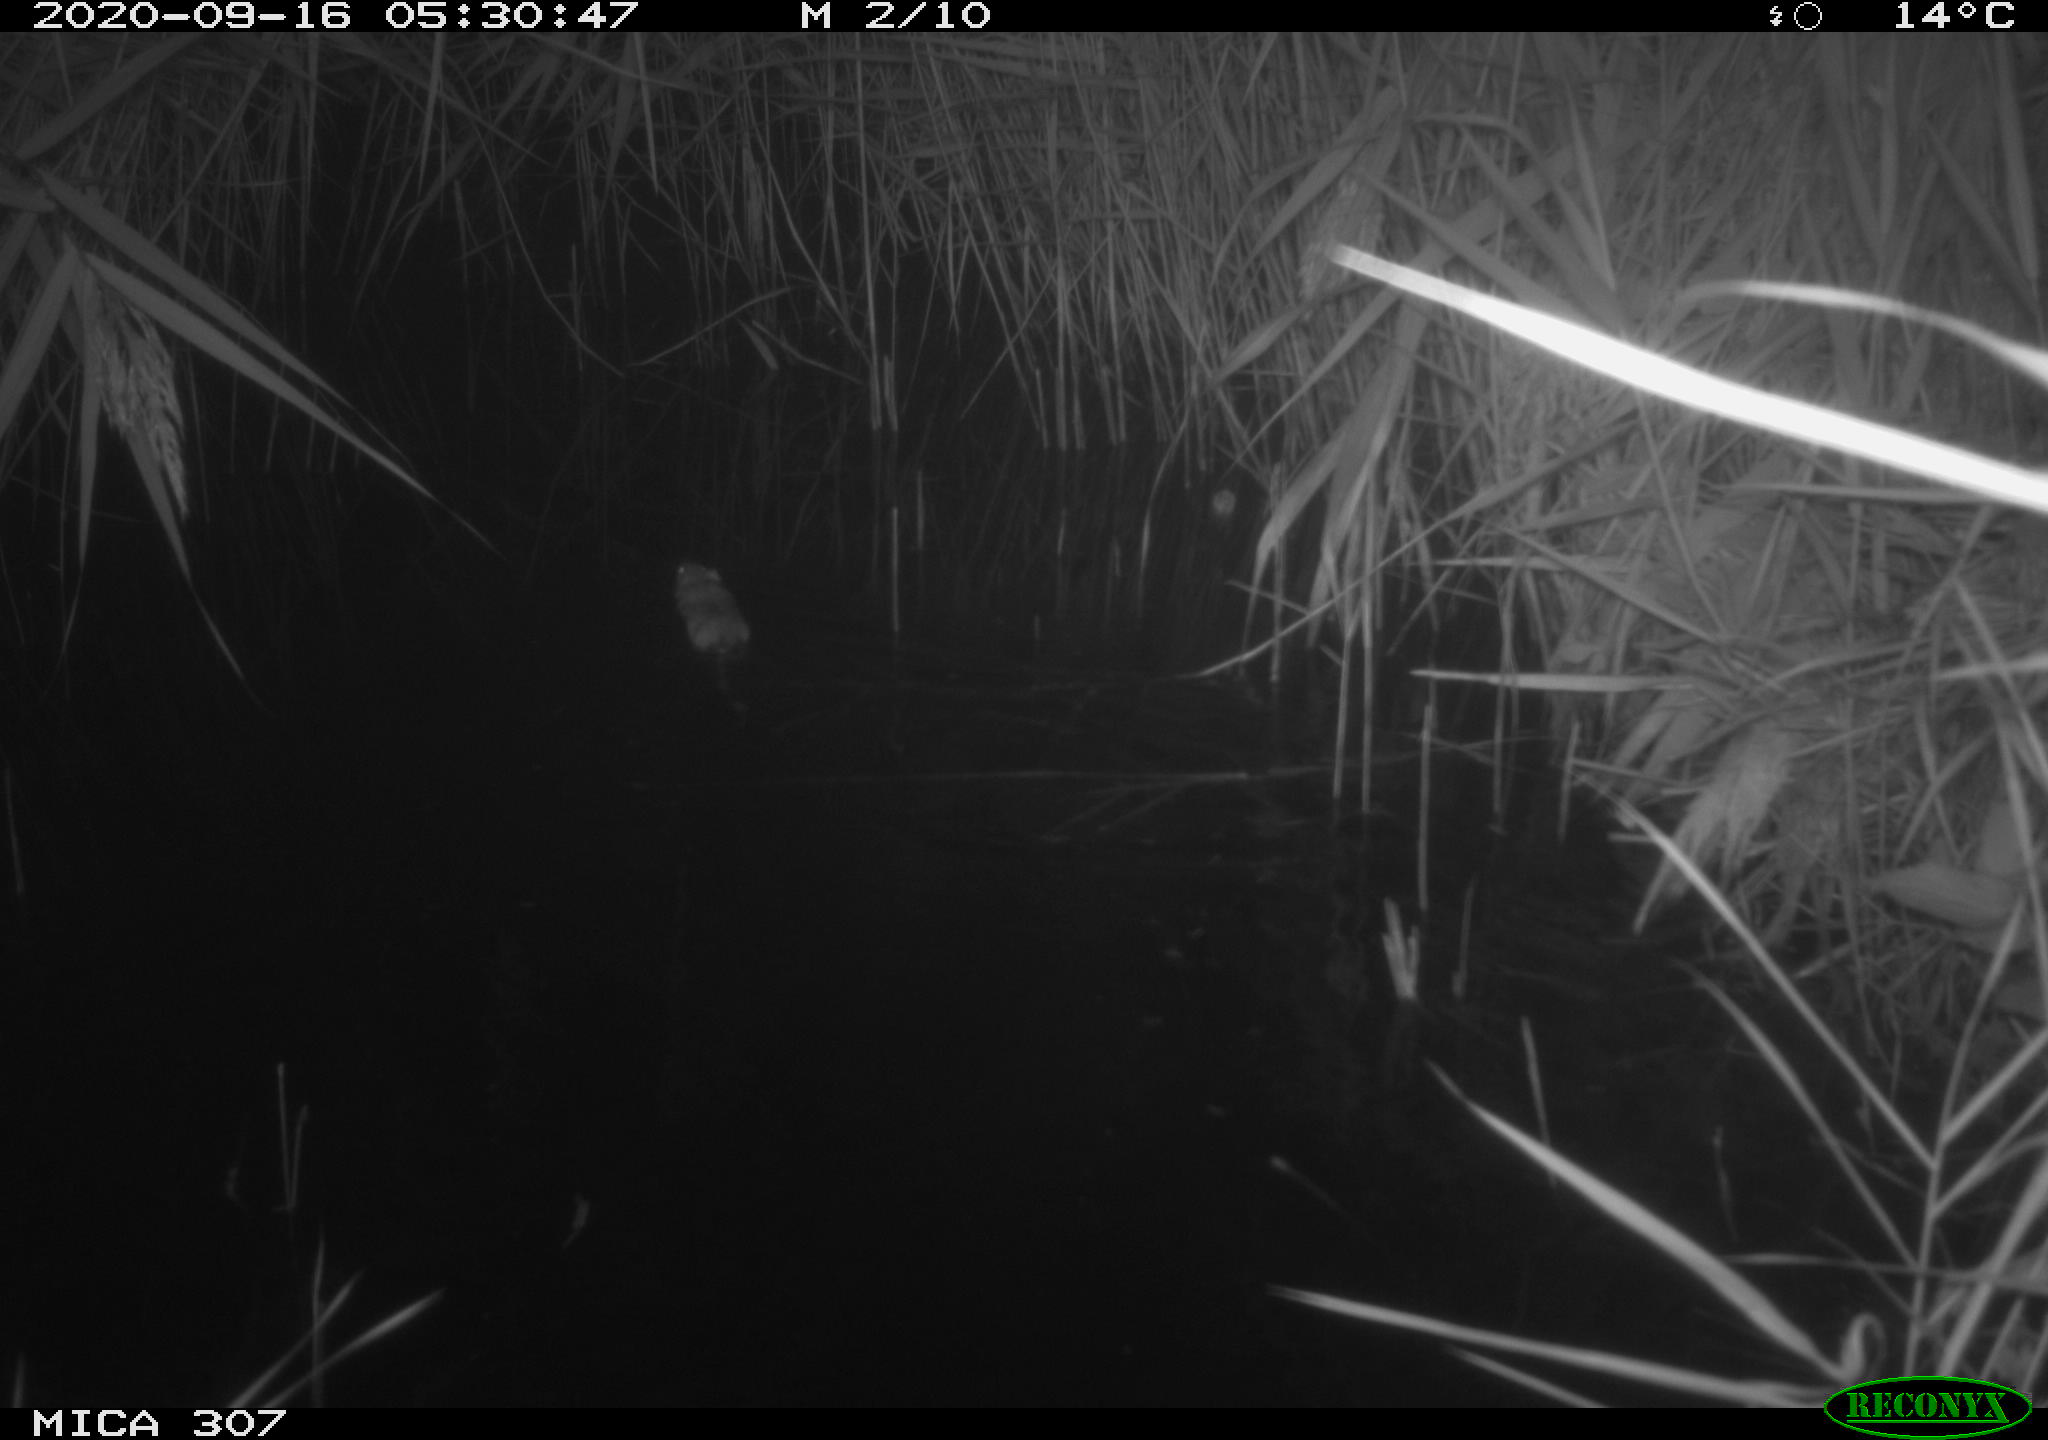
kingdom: Animalia
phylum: Chordata
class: Mammalia
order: Rodentia
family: Cricetidae
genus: Ondatra
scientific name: Ondatra zibethicus
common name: Muskrat
